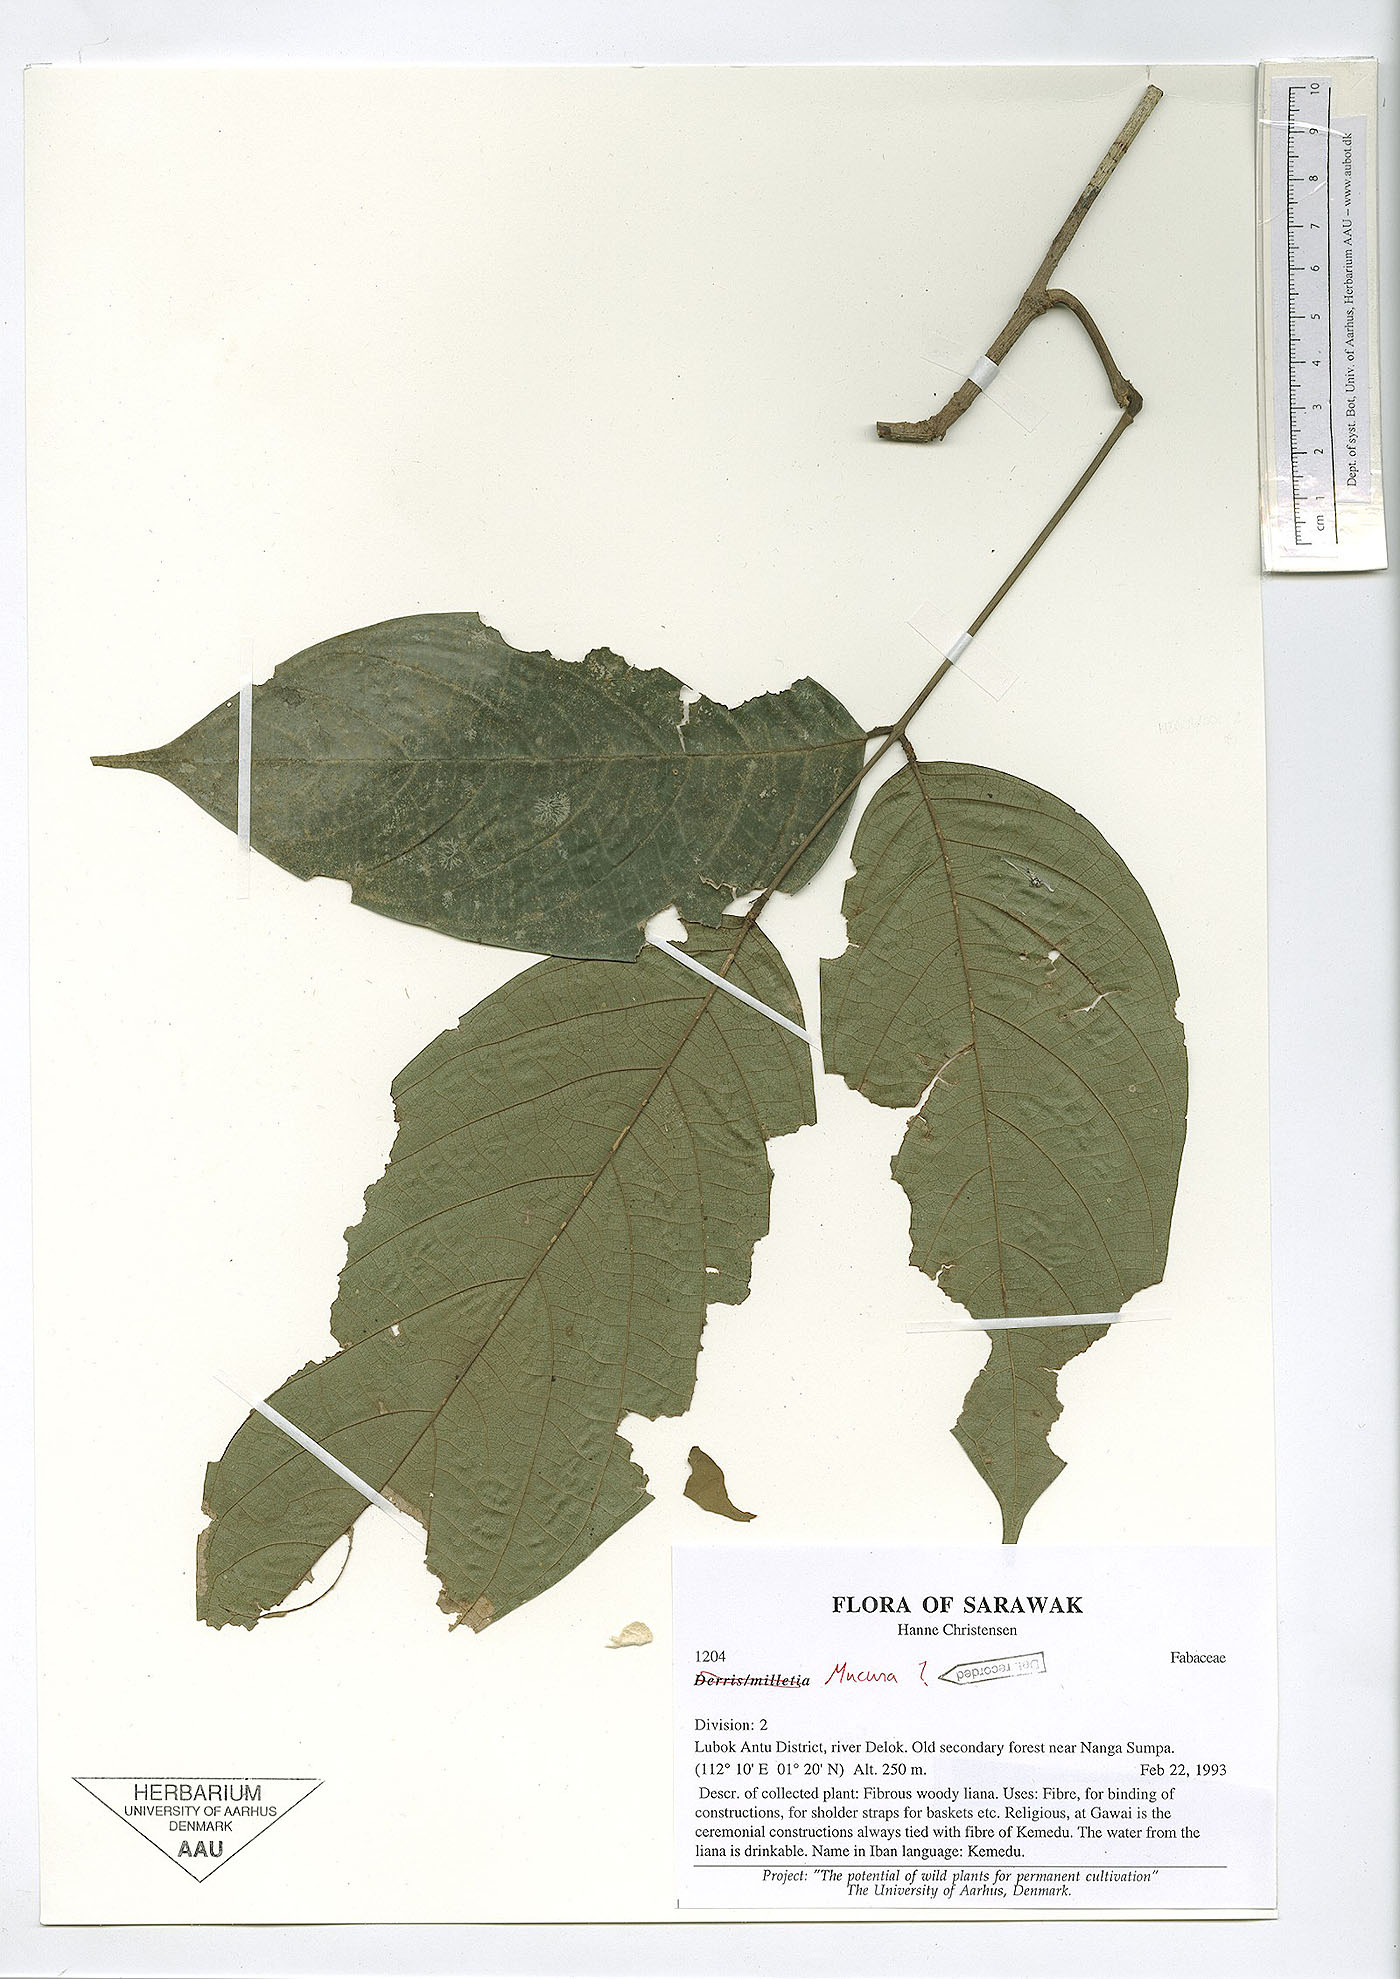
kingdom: Plantae
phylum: Tracheophyta
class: Magnoliopsida
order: Fabales
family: Fabaceae
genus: Spatholobus
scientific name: Spatholobus
